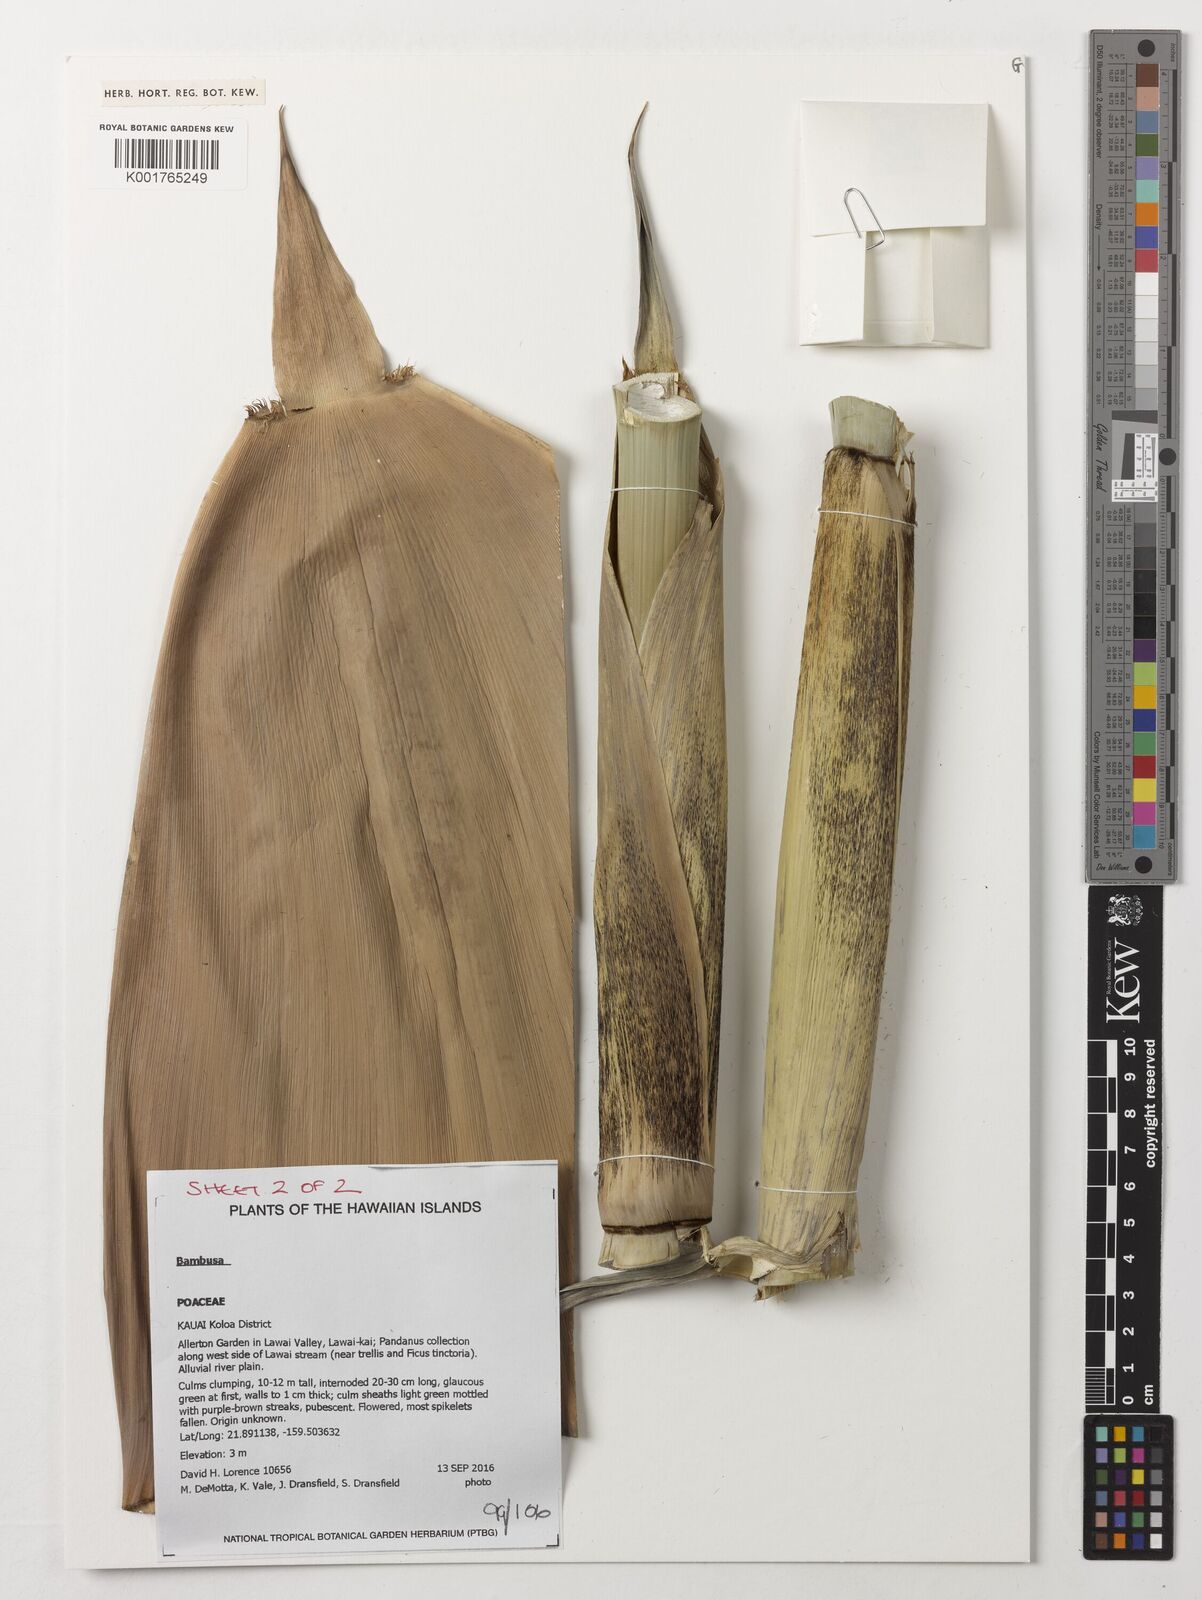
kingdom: Plantae
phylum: Tracheophyta
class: Liliopsida
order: Poales
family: Poaceae
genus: Bambusa
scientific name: Bambusa
